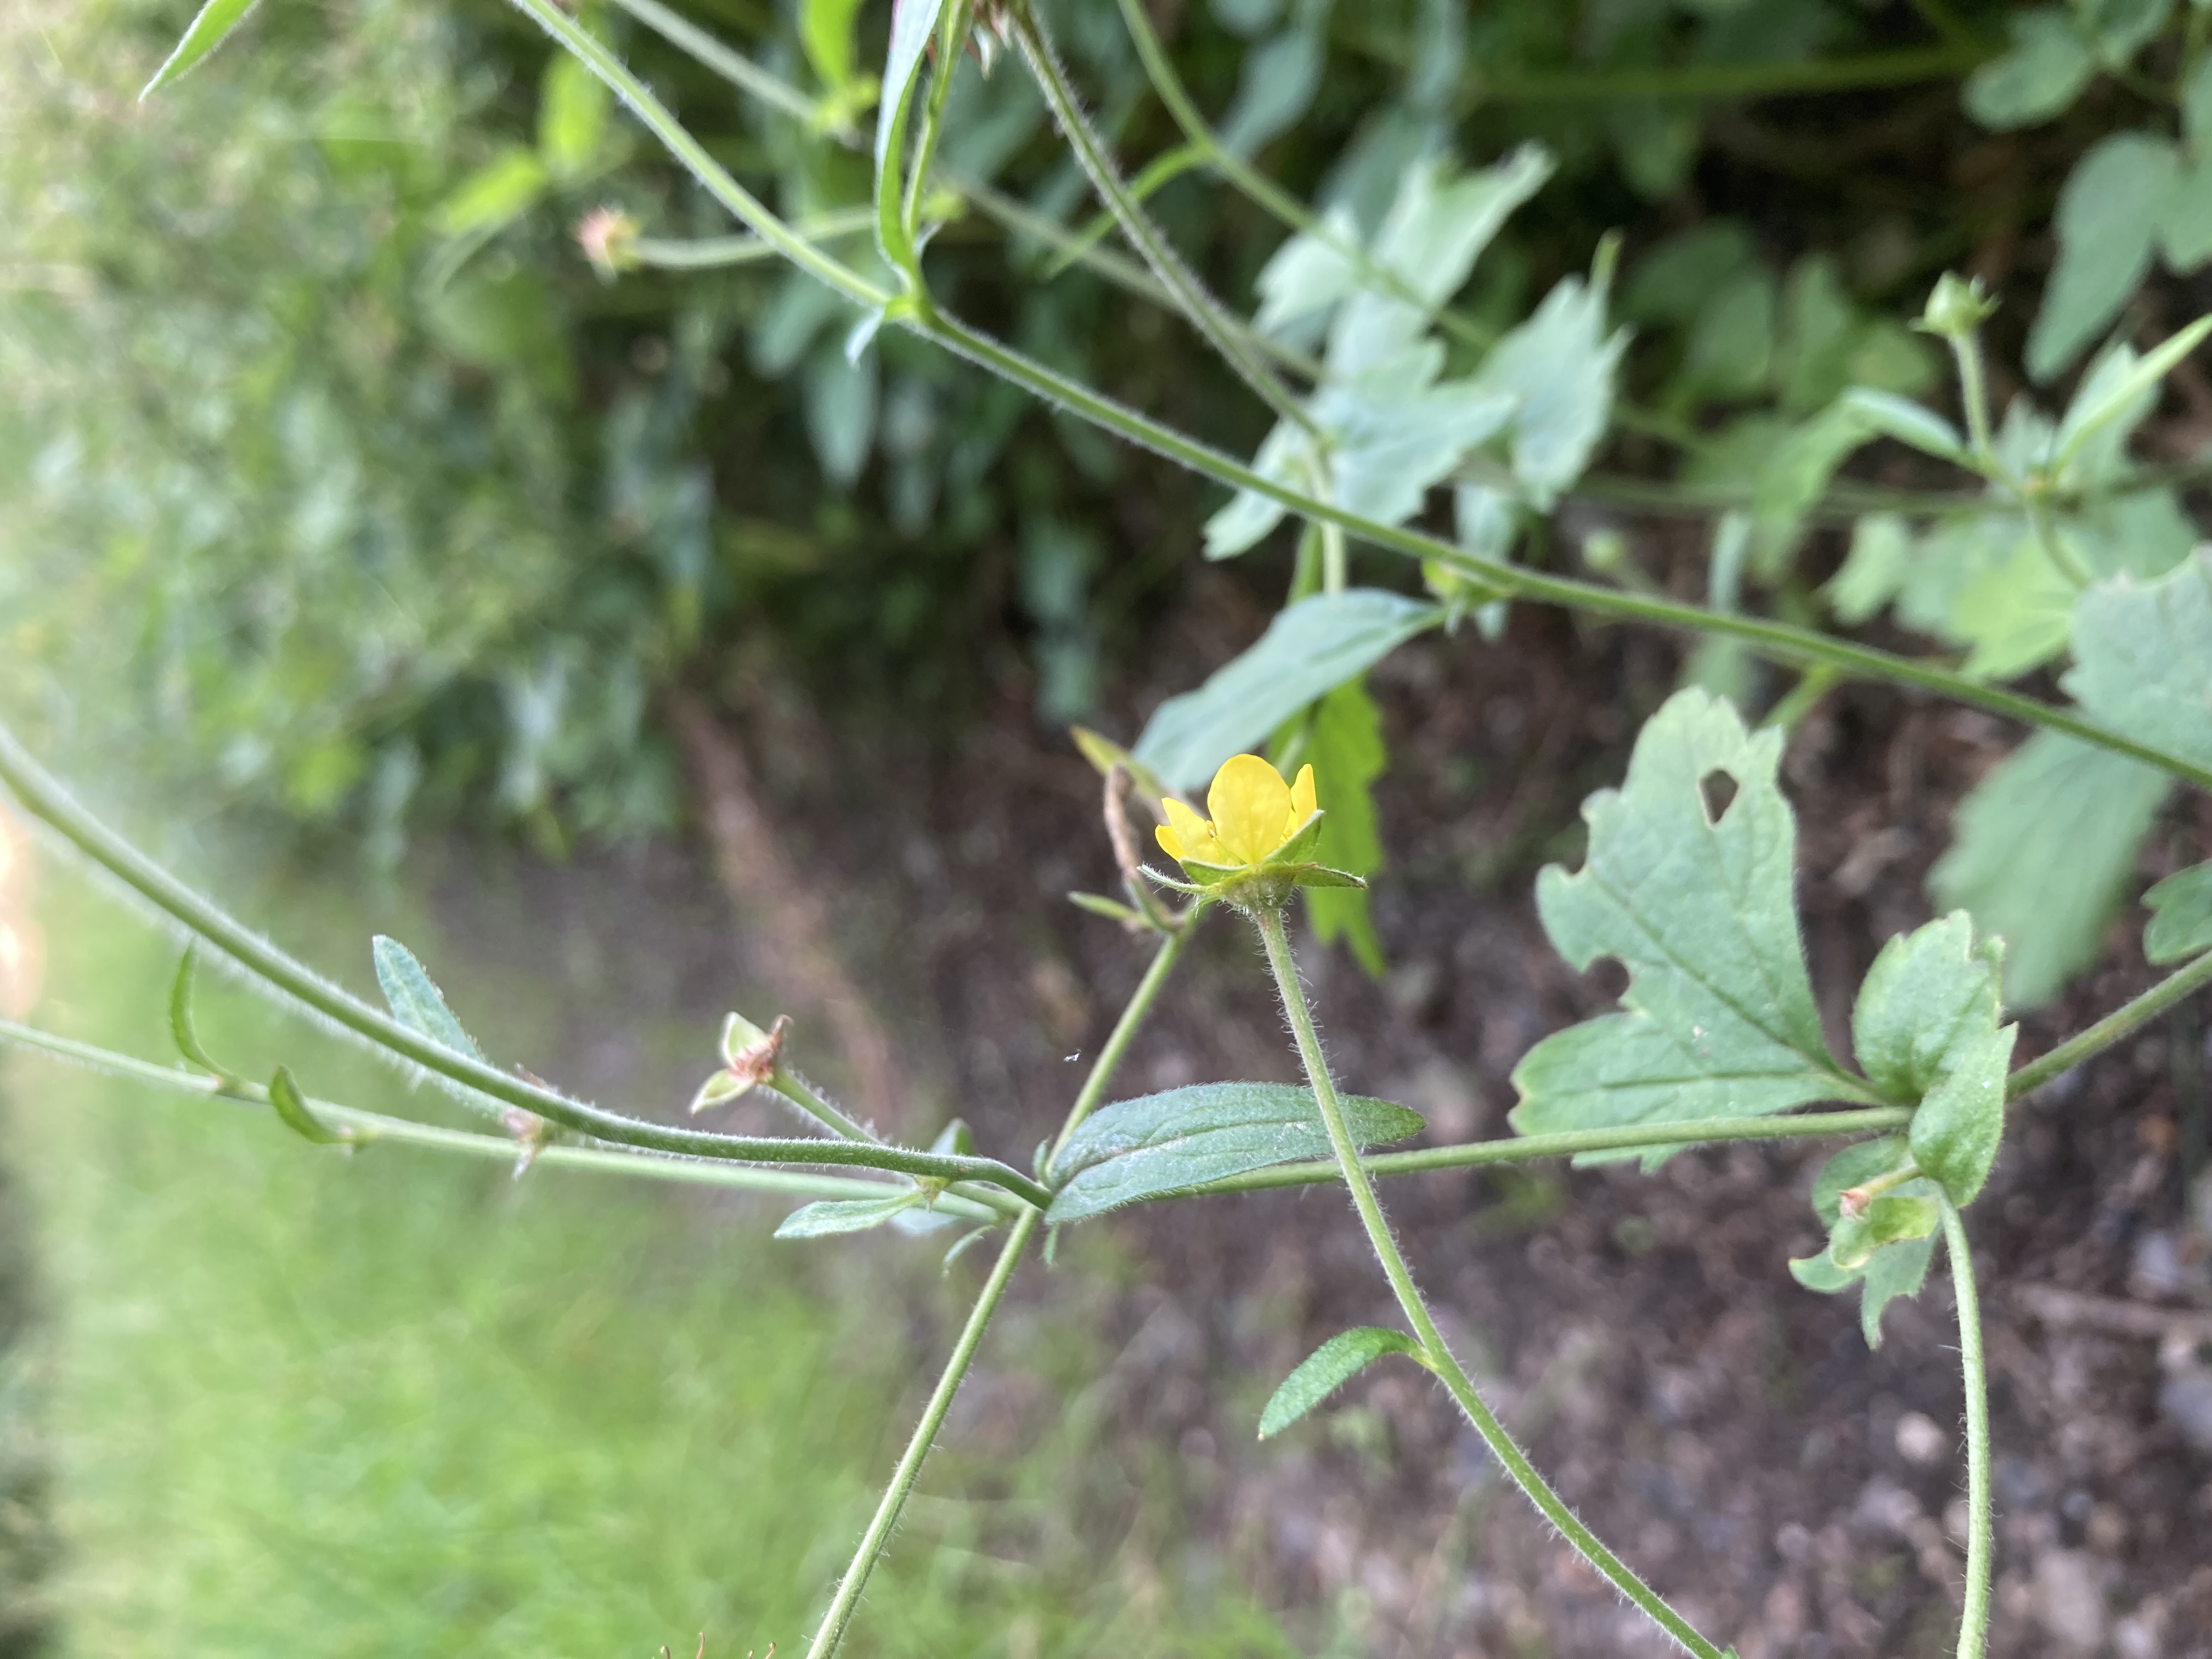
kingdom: Plantae
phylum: Tracheophyta
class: Magnoliopsida
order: Rosales
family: Rosaceae
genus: Geum
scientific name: Geum urbanum
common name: Feber-nellikerod
